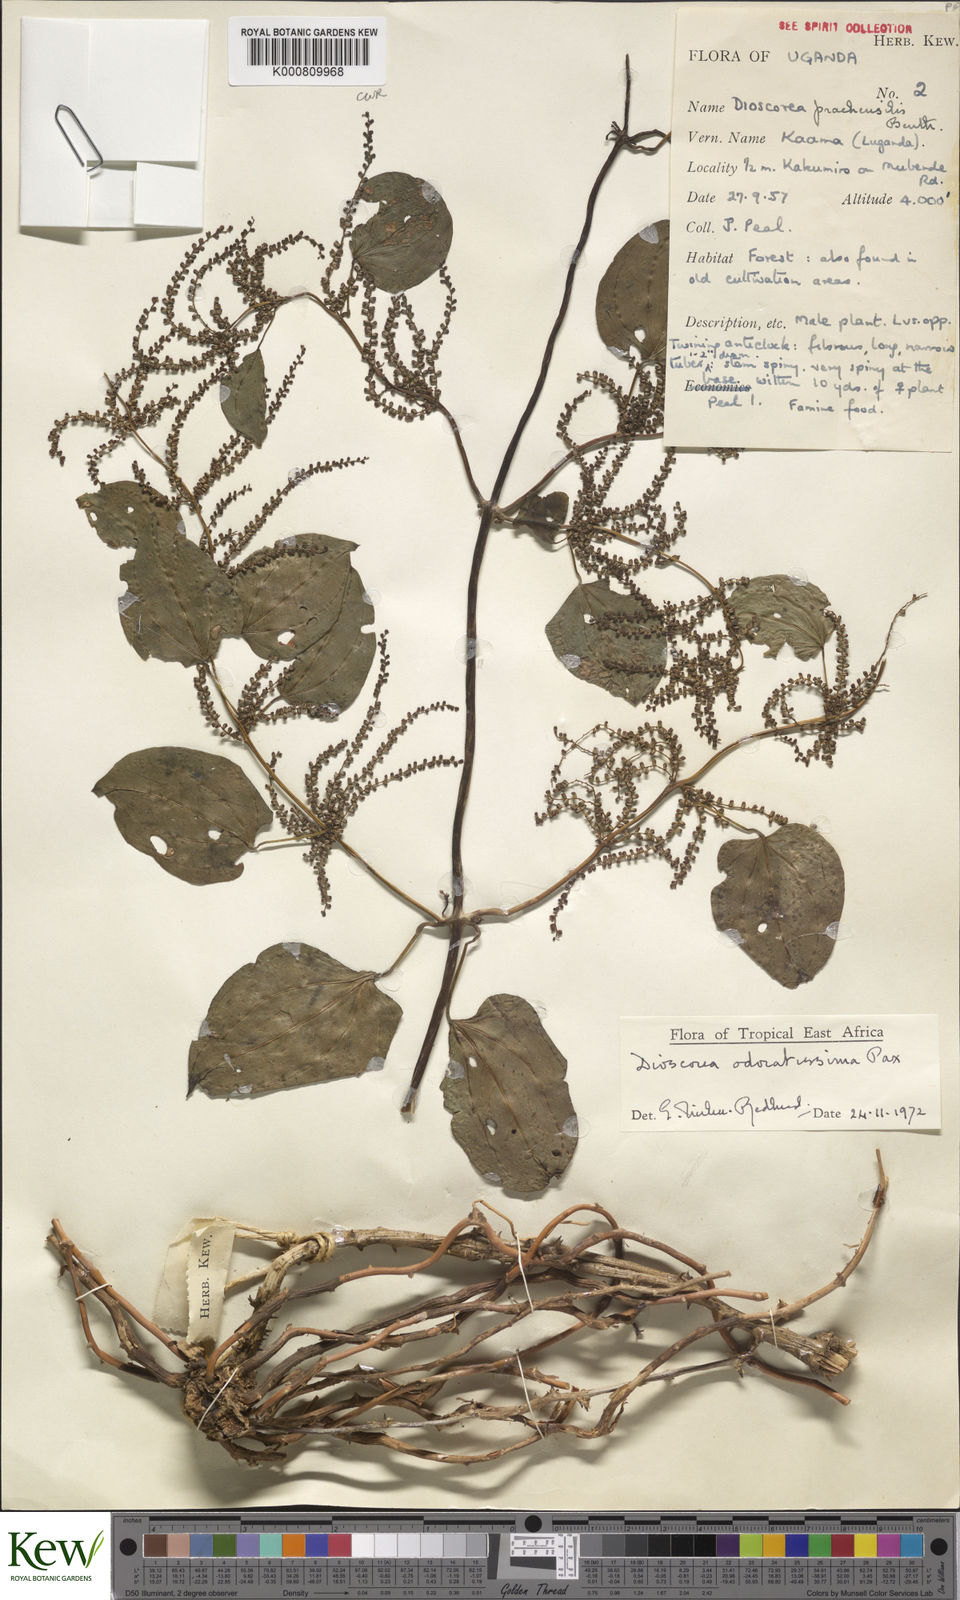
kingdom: Plantae
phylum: Tracheophyta
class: Liliopsida
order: Dioscoreales
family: Dioscoreaceae
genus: Dioscorea
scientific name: Dioscorea praehensilis
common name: Bush yam
